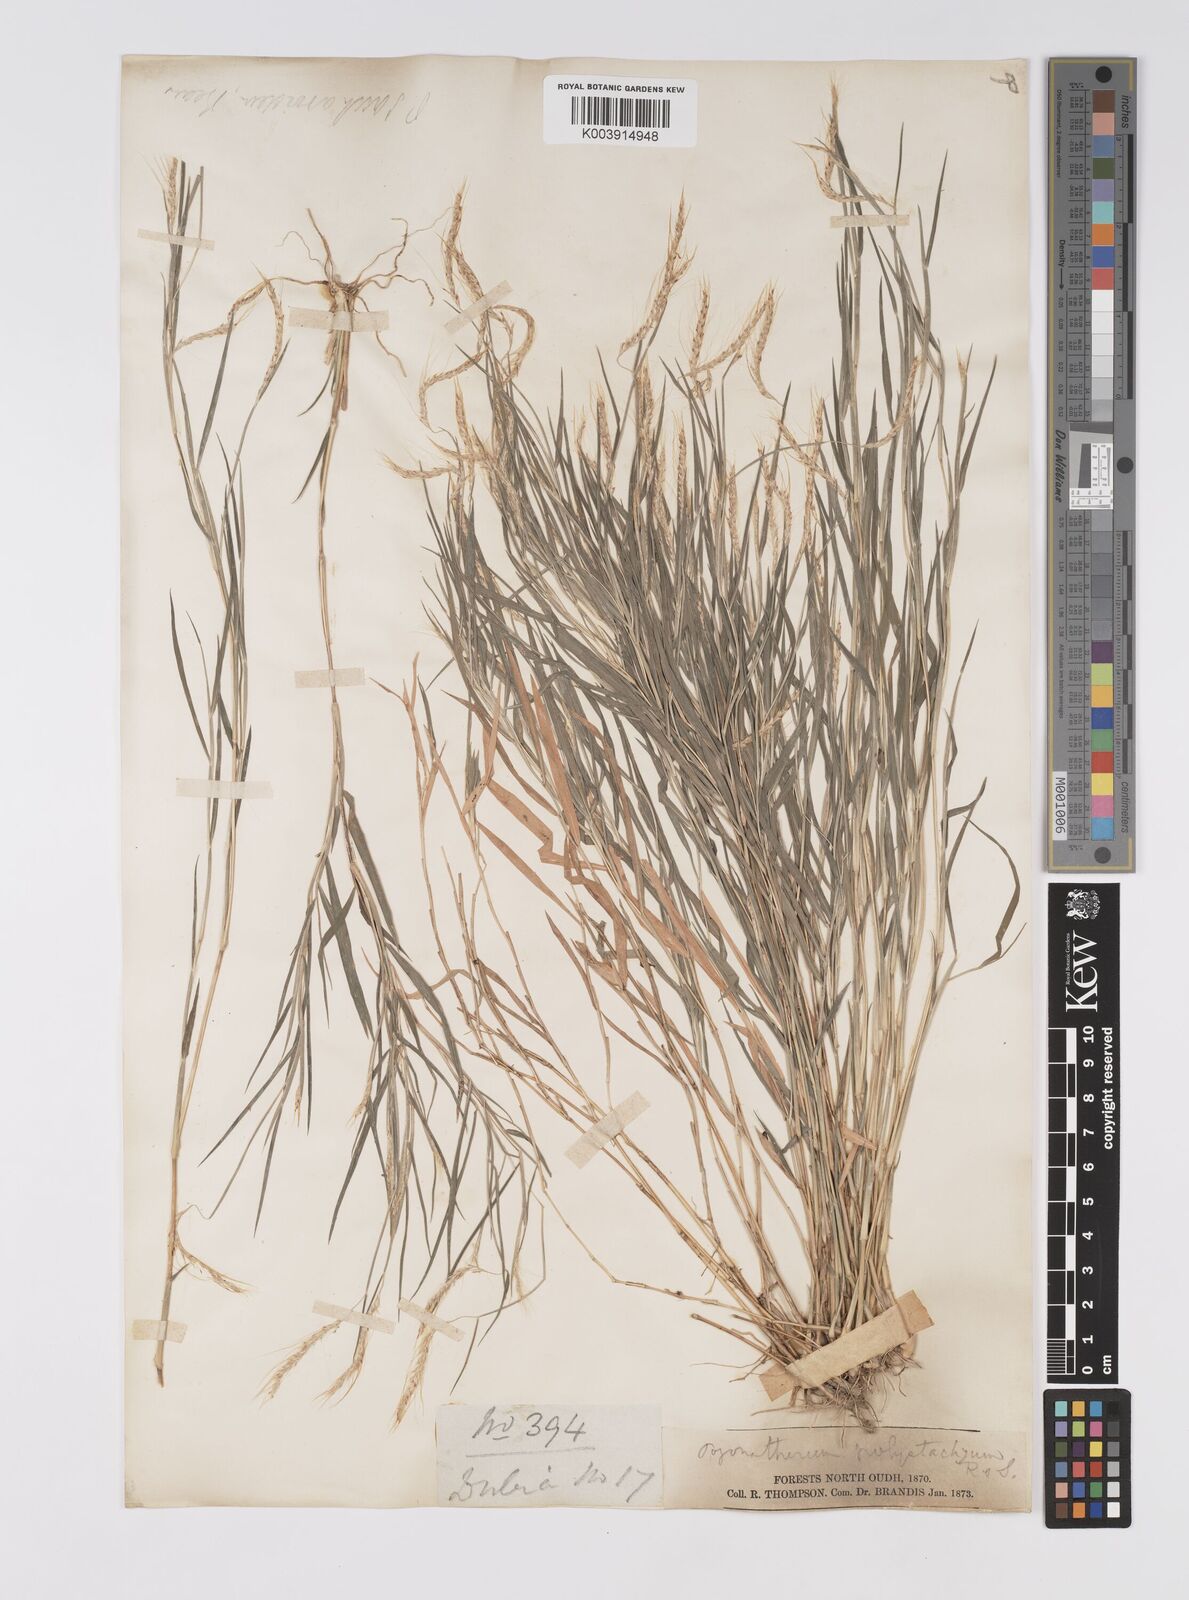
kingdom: Plantae
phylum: Tracheophyta
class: Liliopsida
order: Poales
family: Poaceae
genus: Pogonatherum
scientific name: Pogonatherum paniceum
